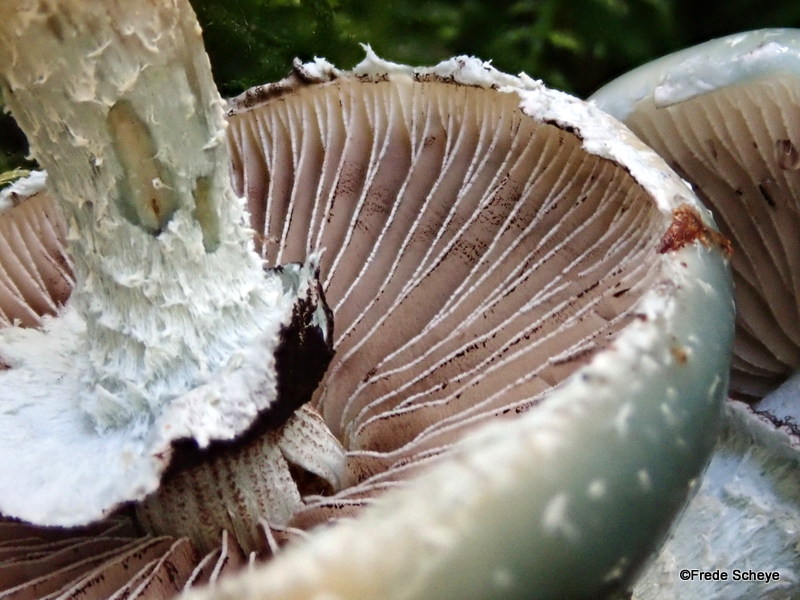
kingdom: Fungi
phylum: Basidiomycota
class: Agaricomycetes
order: Agaricales
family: Strophariaceae
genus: Stropharia
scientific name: Stropharia aeruginosa
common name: spanskgrøn bredblad
